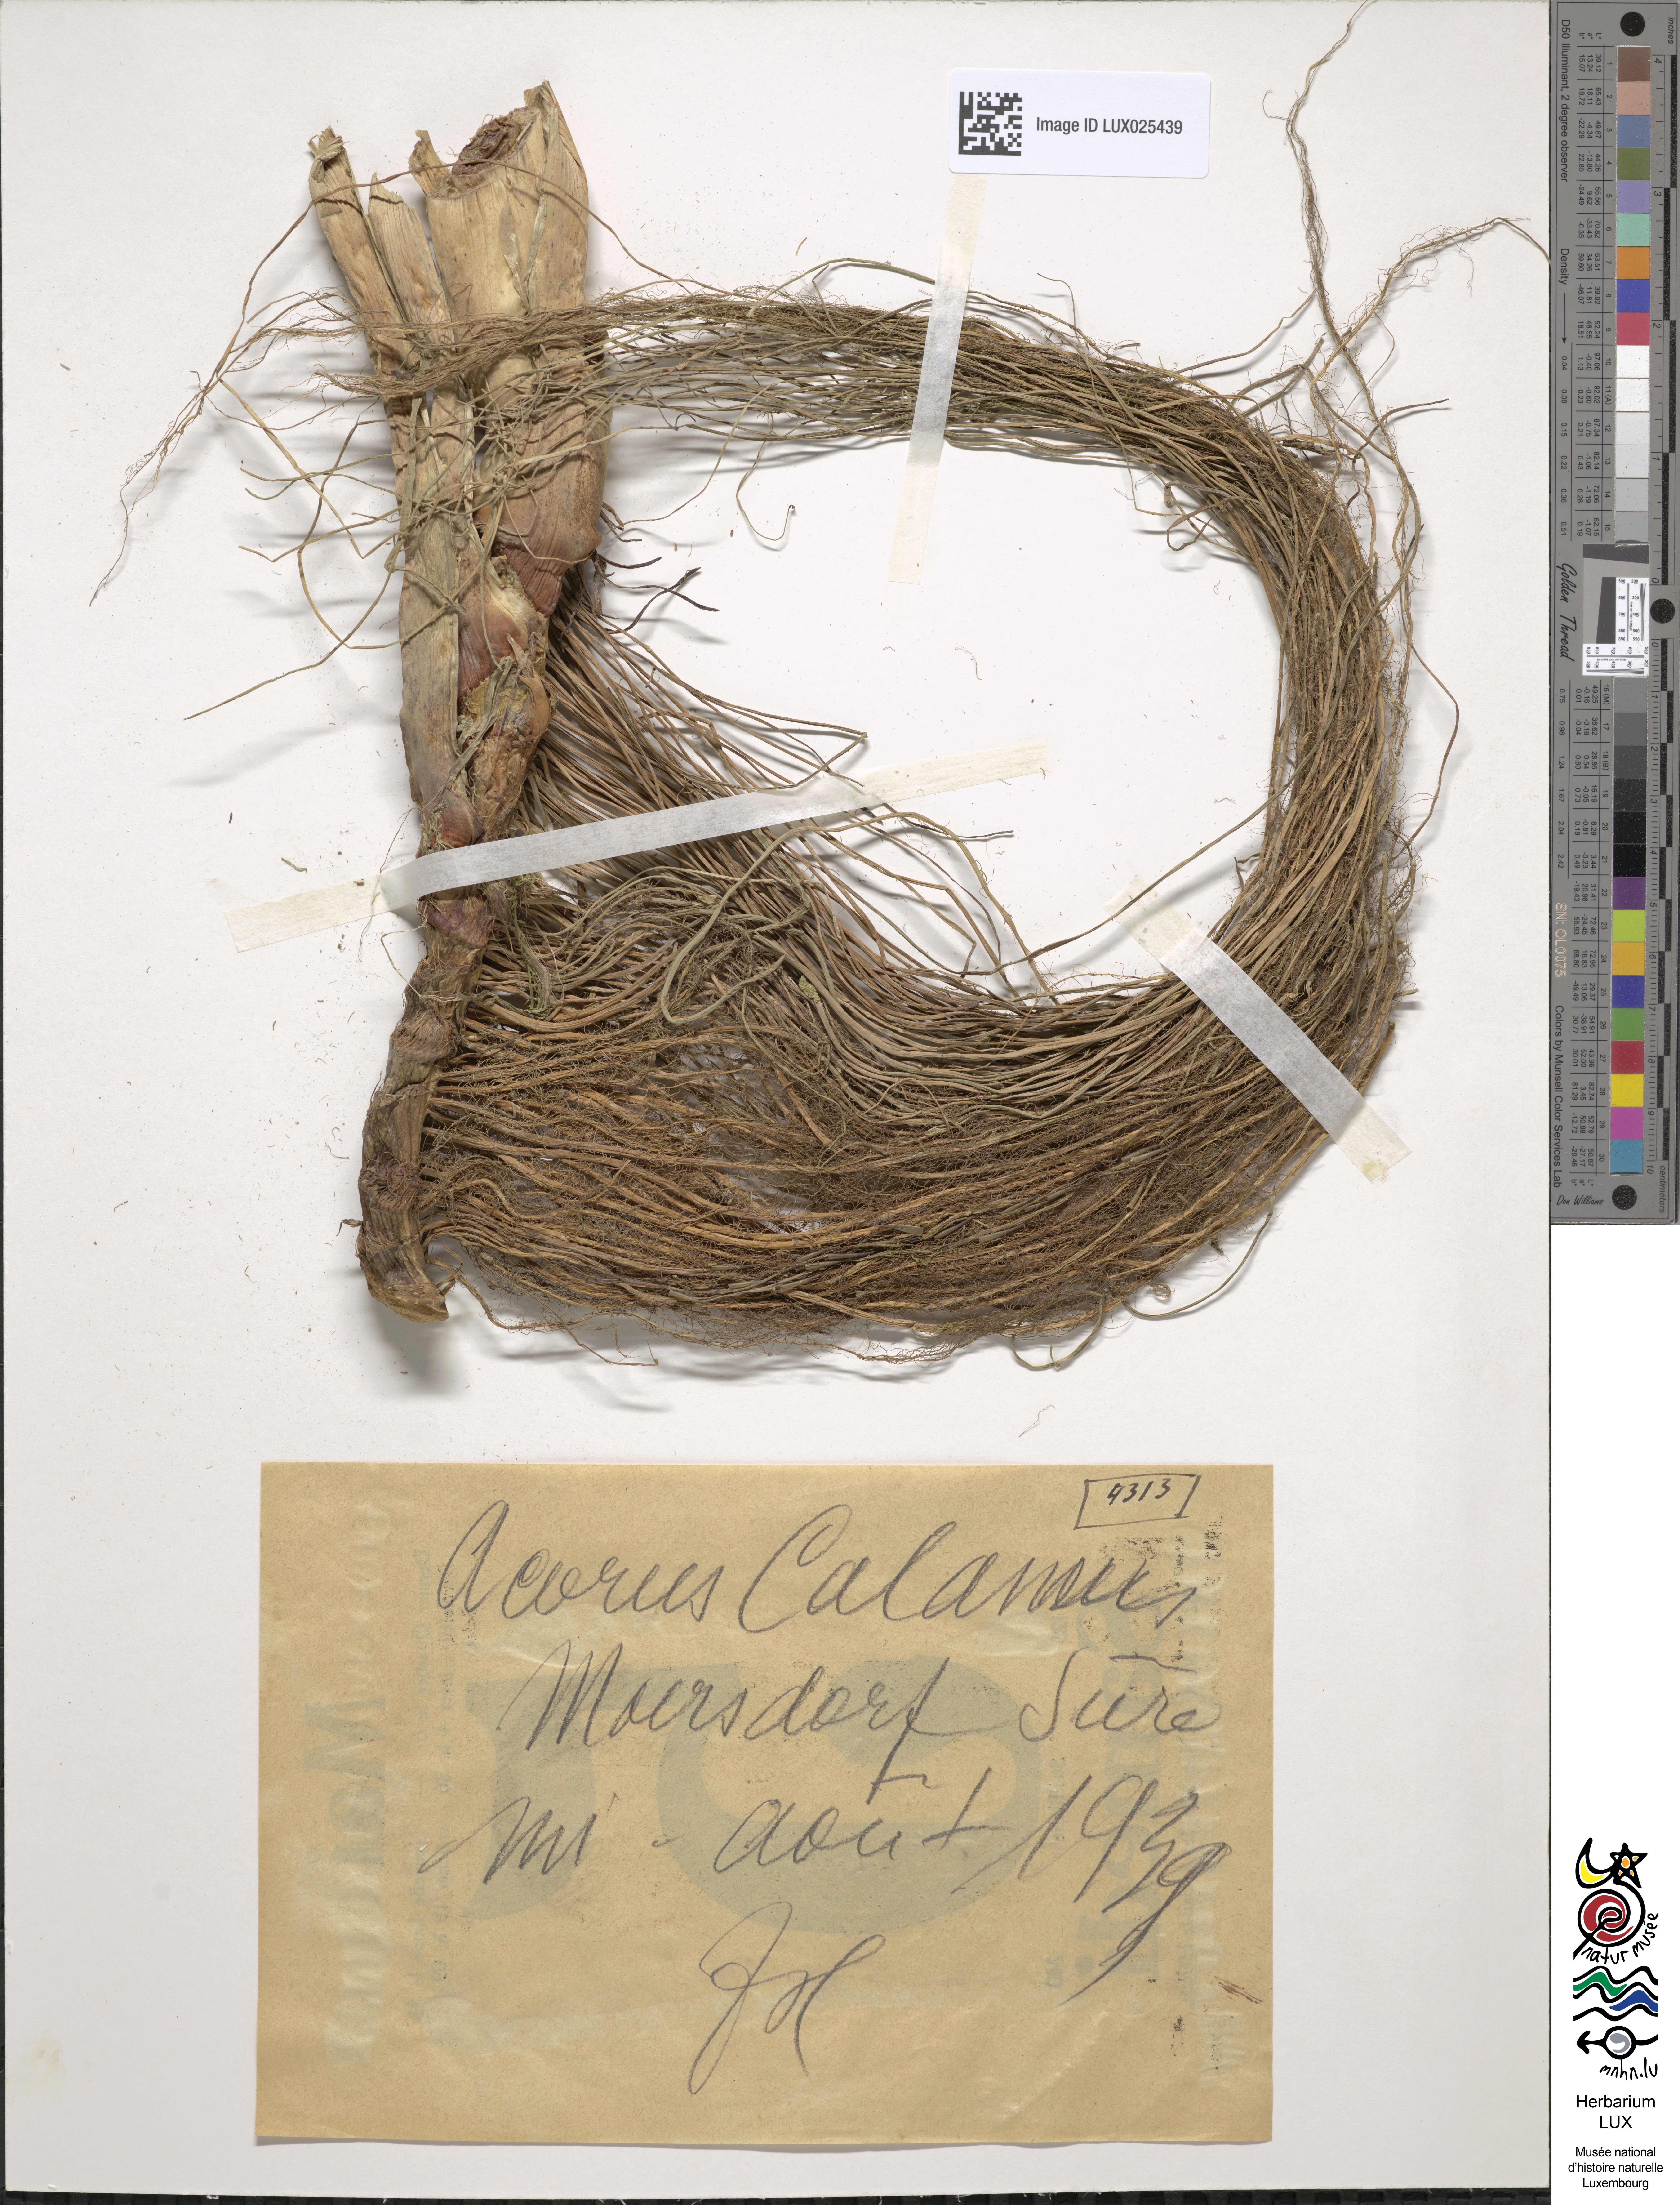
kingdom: Plantae
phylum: Tracheophyta
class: Liliopsida
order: Acorales
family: Acoraceae
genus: Acorus
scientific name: Acorus calamus
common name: Sweet-flag
